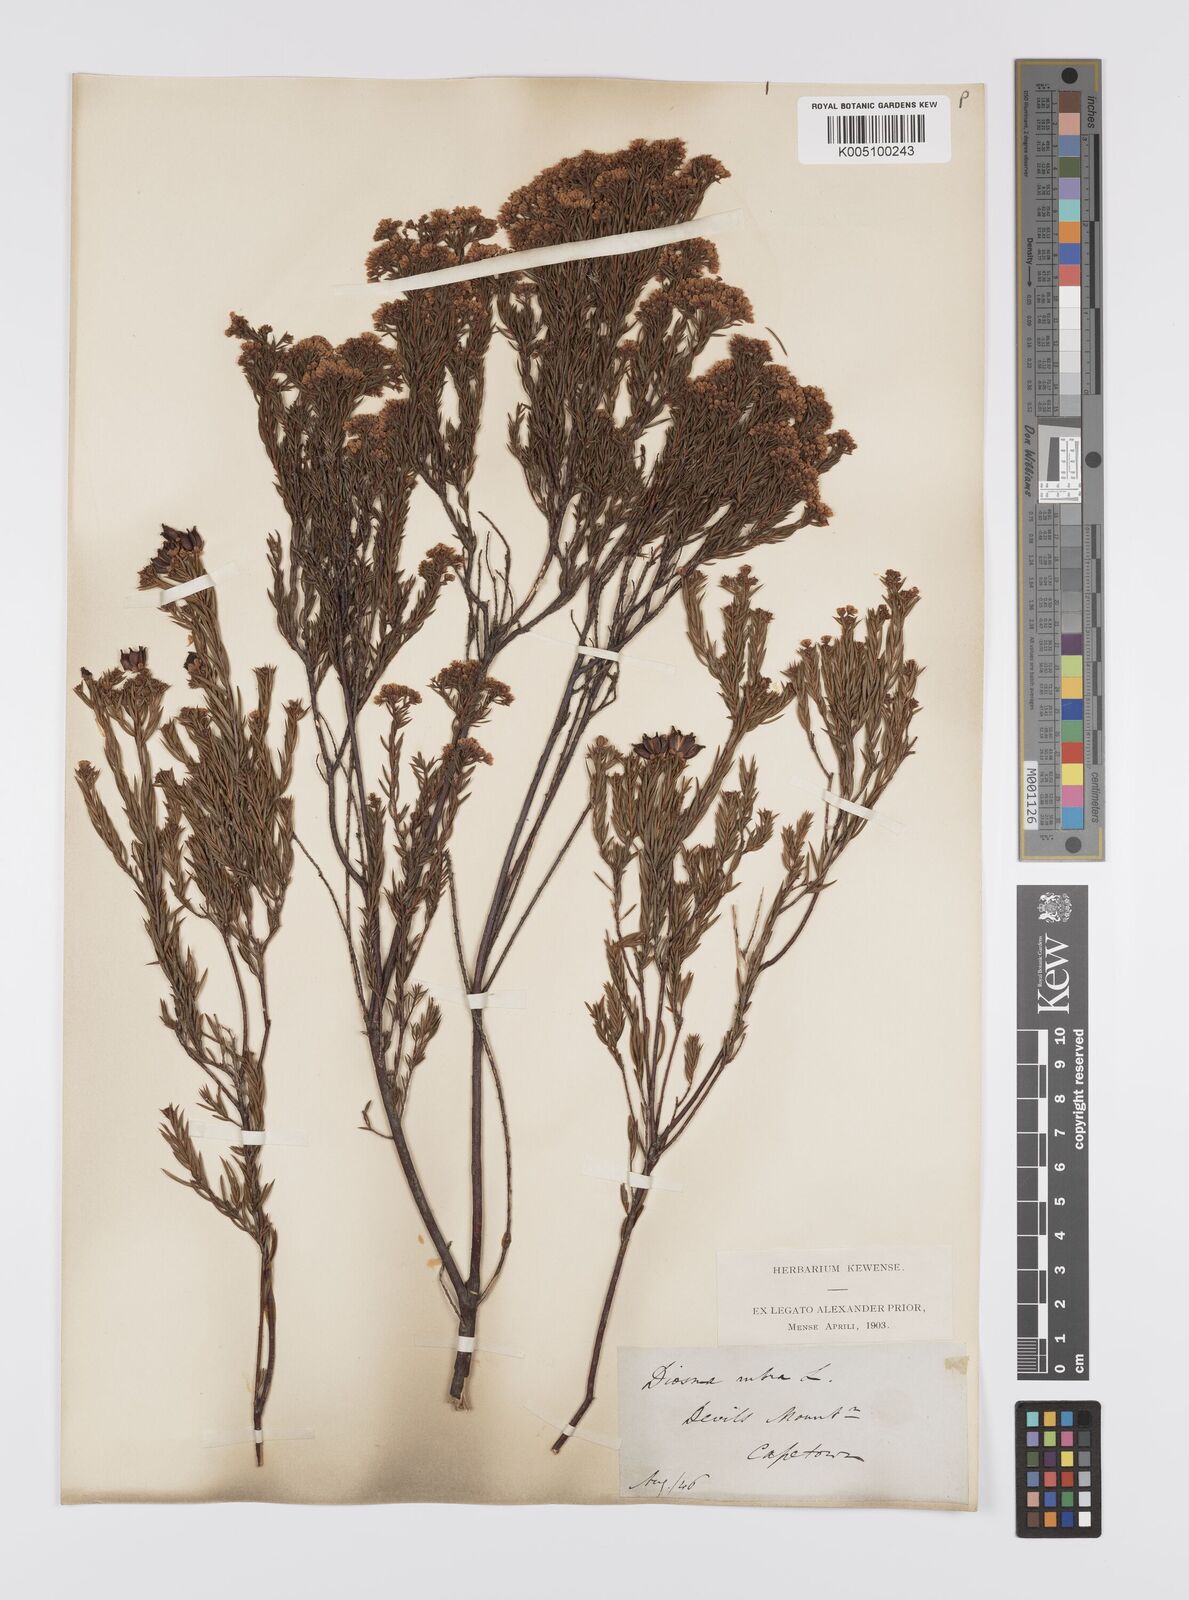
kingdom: Plantae
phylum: Tracheophyta
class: Magnoliopsida
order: Sapindales
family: Rutaceae
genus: Diosma
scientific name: Diosma hirsuta
